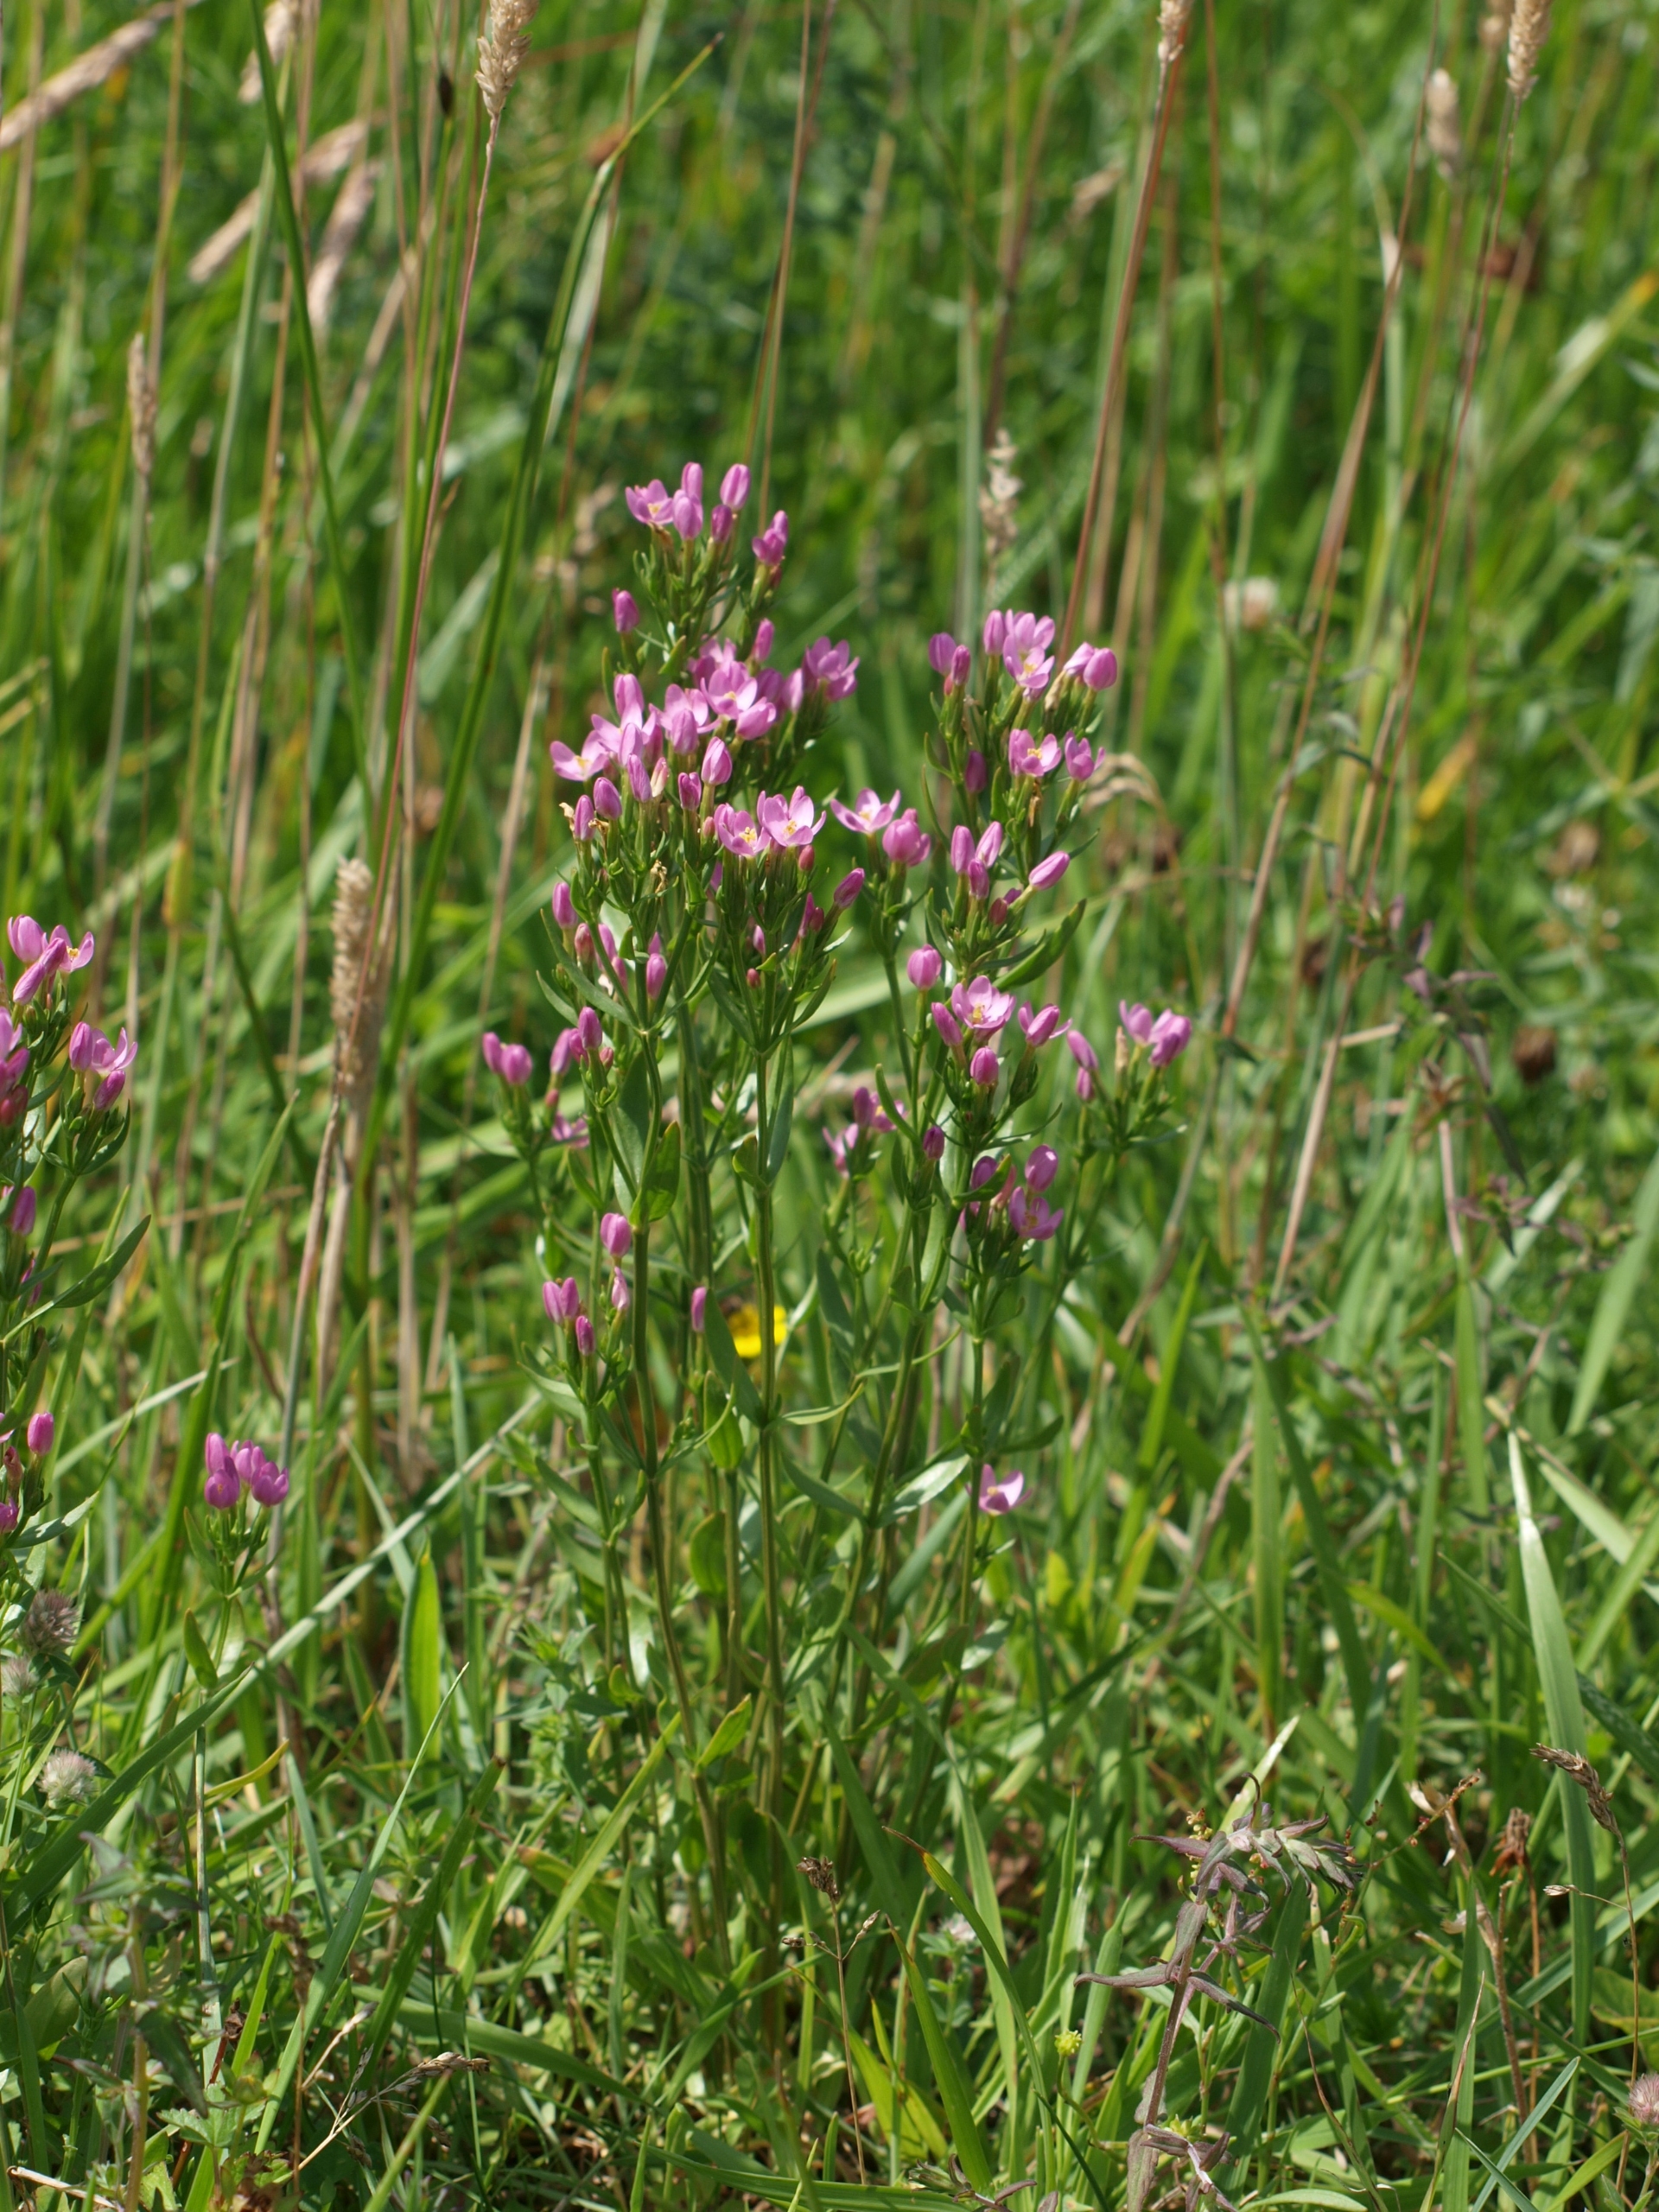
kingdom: Plantae
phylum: Tracheophyta
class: Magnoliopsida
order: Gentianales
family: Gentianaceae
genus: Centaurium
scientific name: Centaurium erythraea
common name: Mark-tusindgylden
